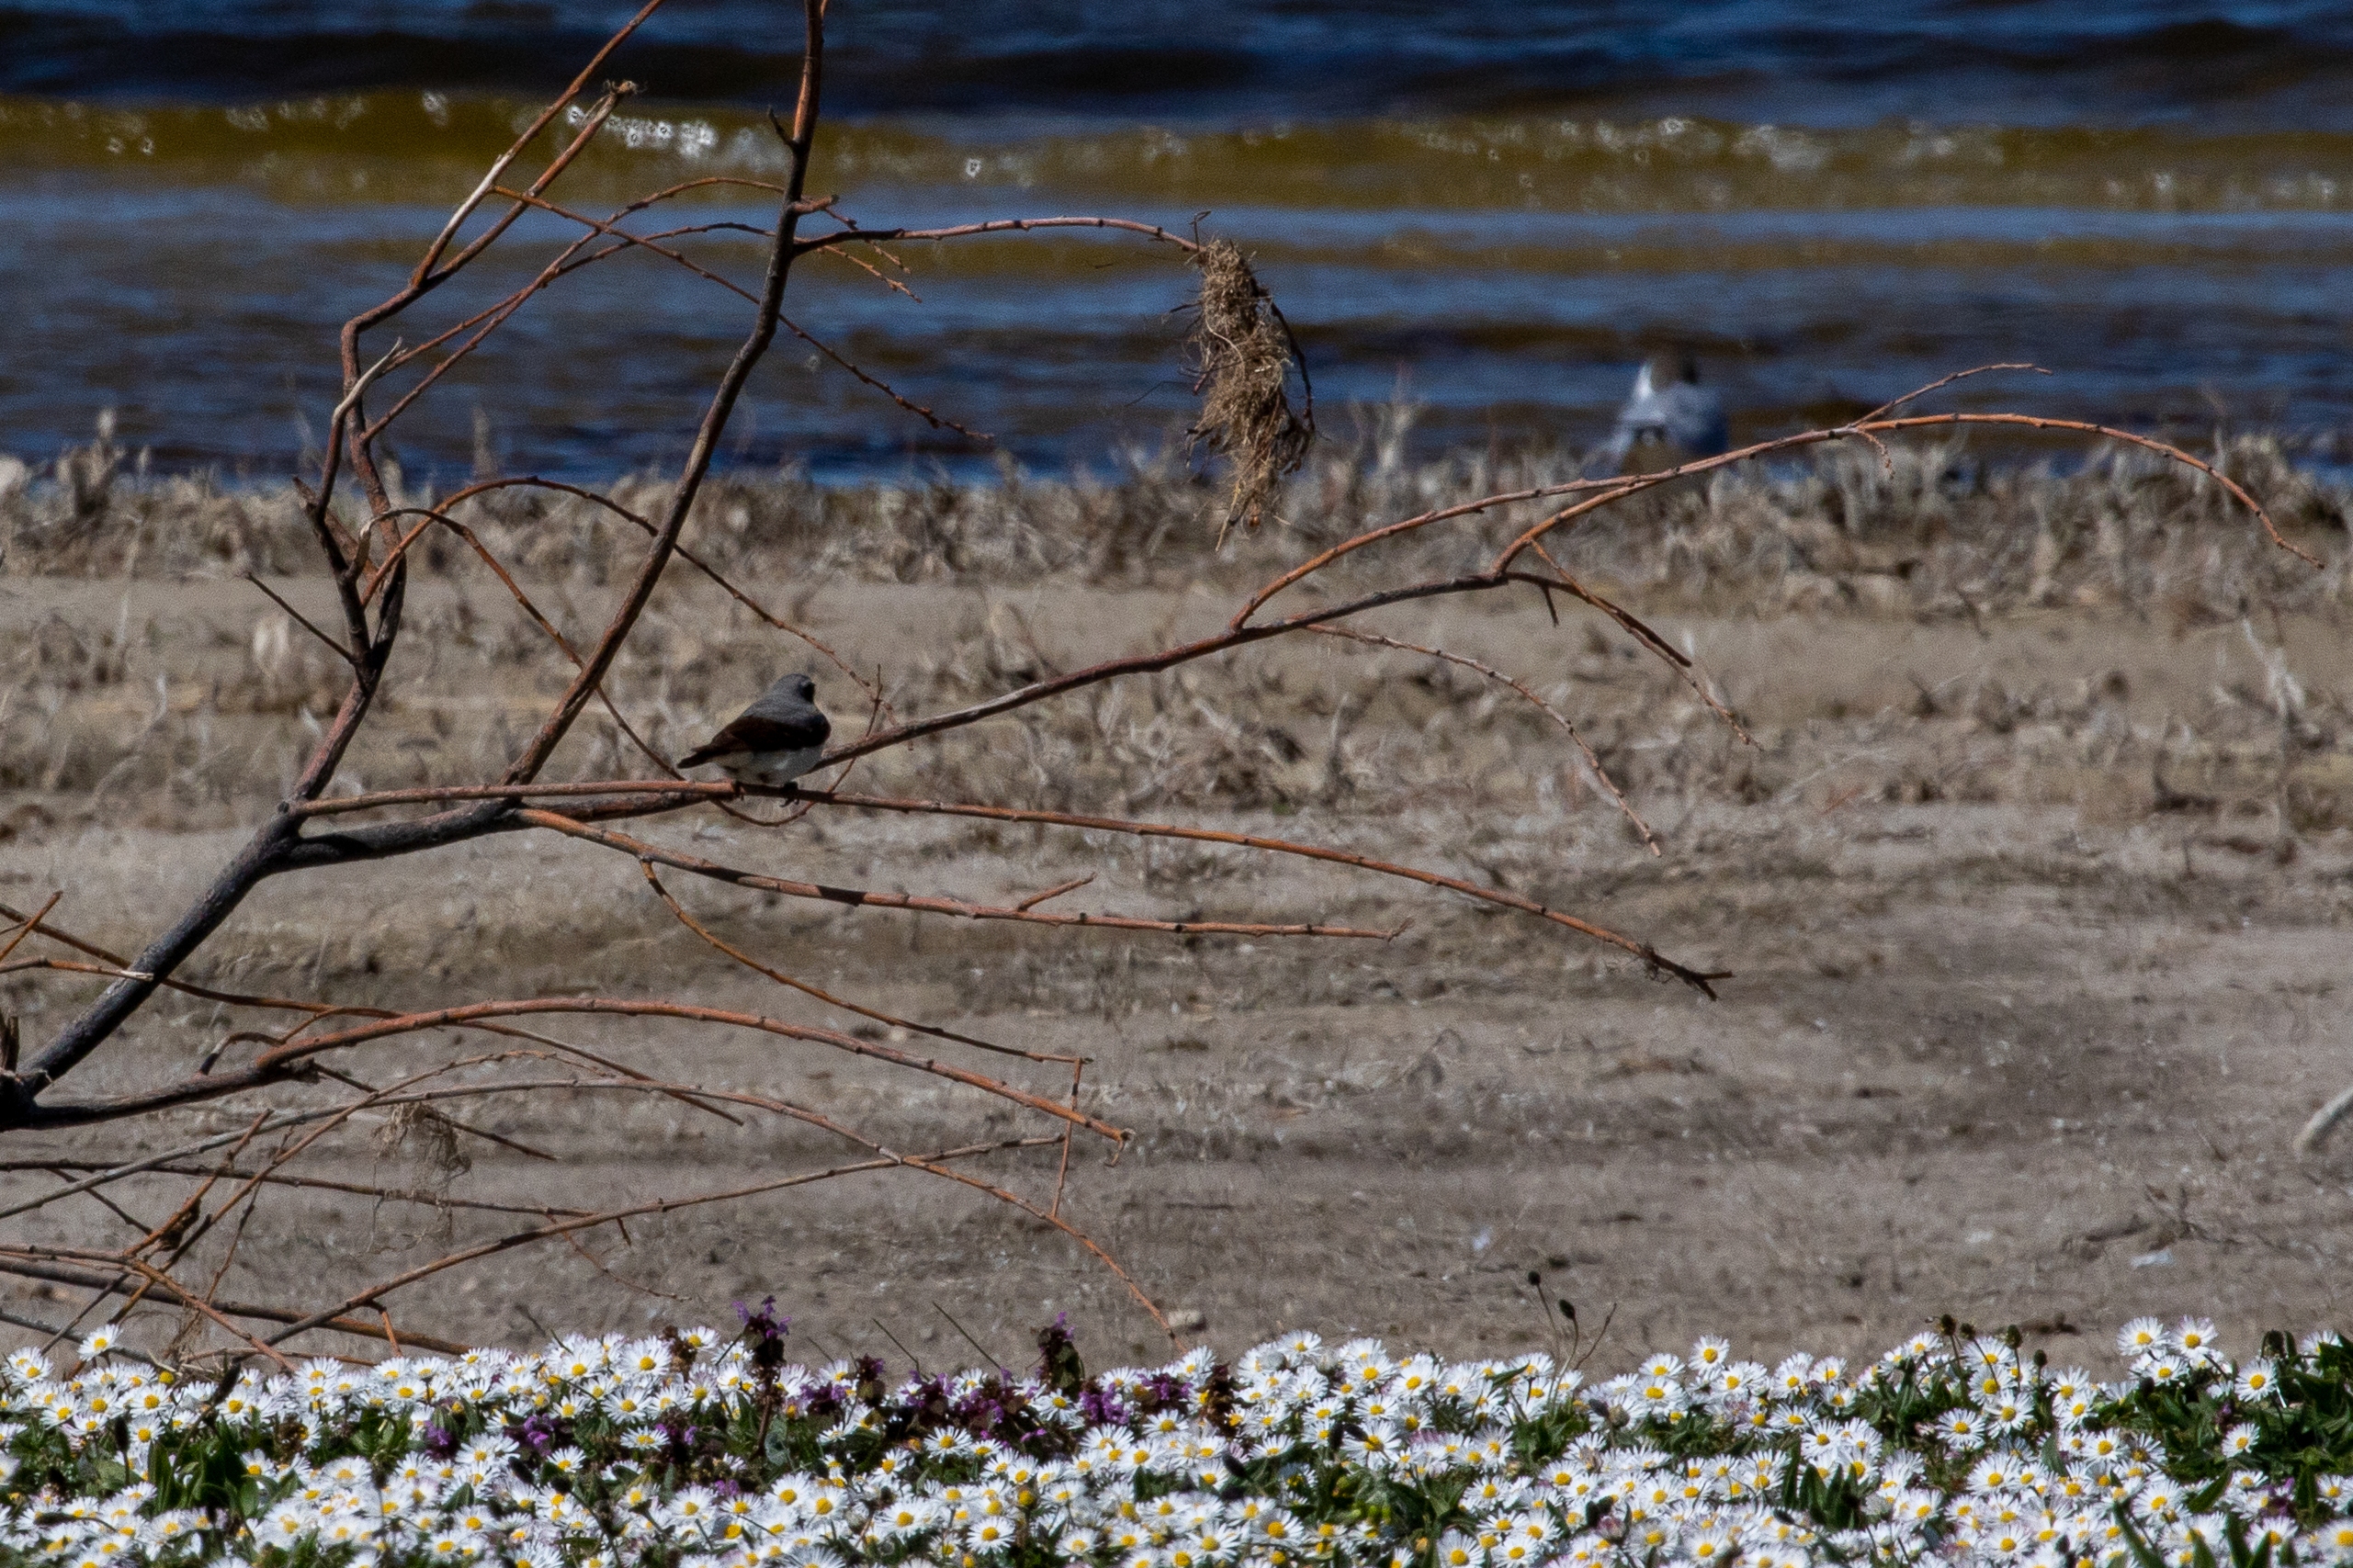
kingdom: Animalia
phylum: Chordata
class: Aves
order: Passeriformes
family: Muscicapidae
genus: Oenanthe
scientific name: Oenanthe oenanthe
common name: Stenpikker
